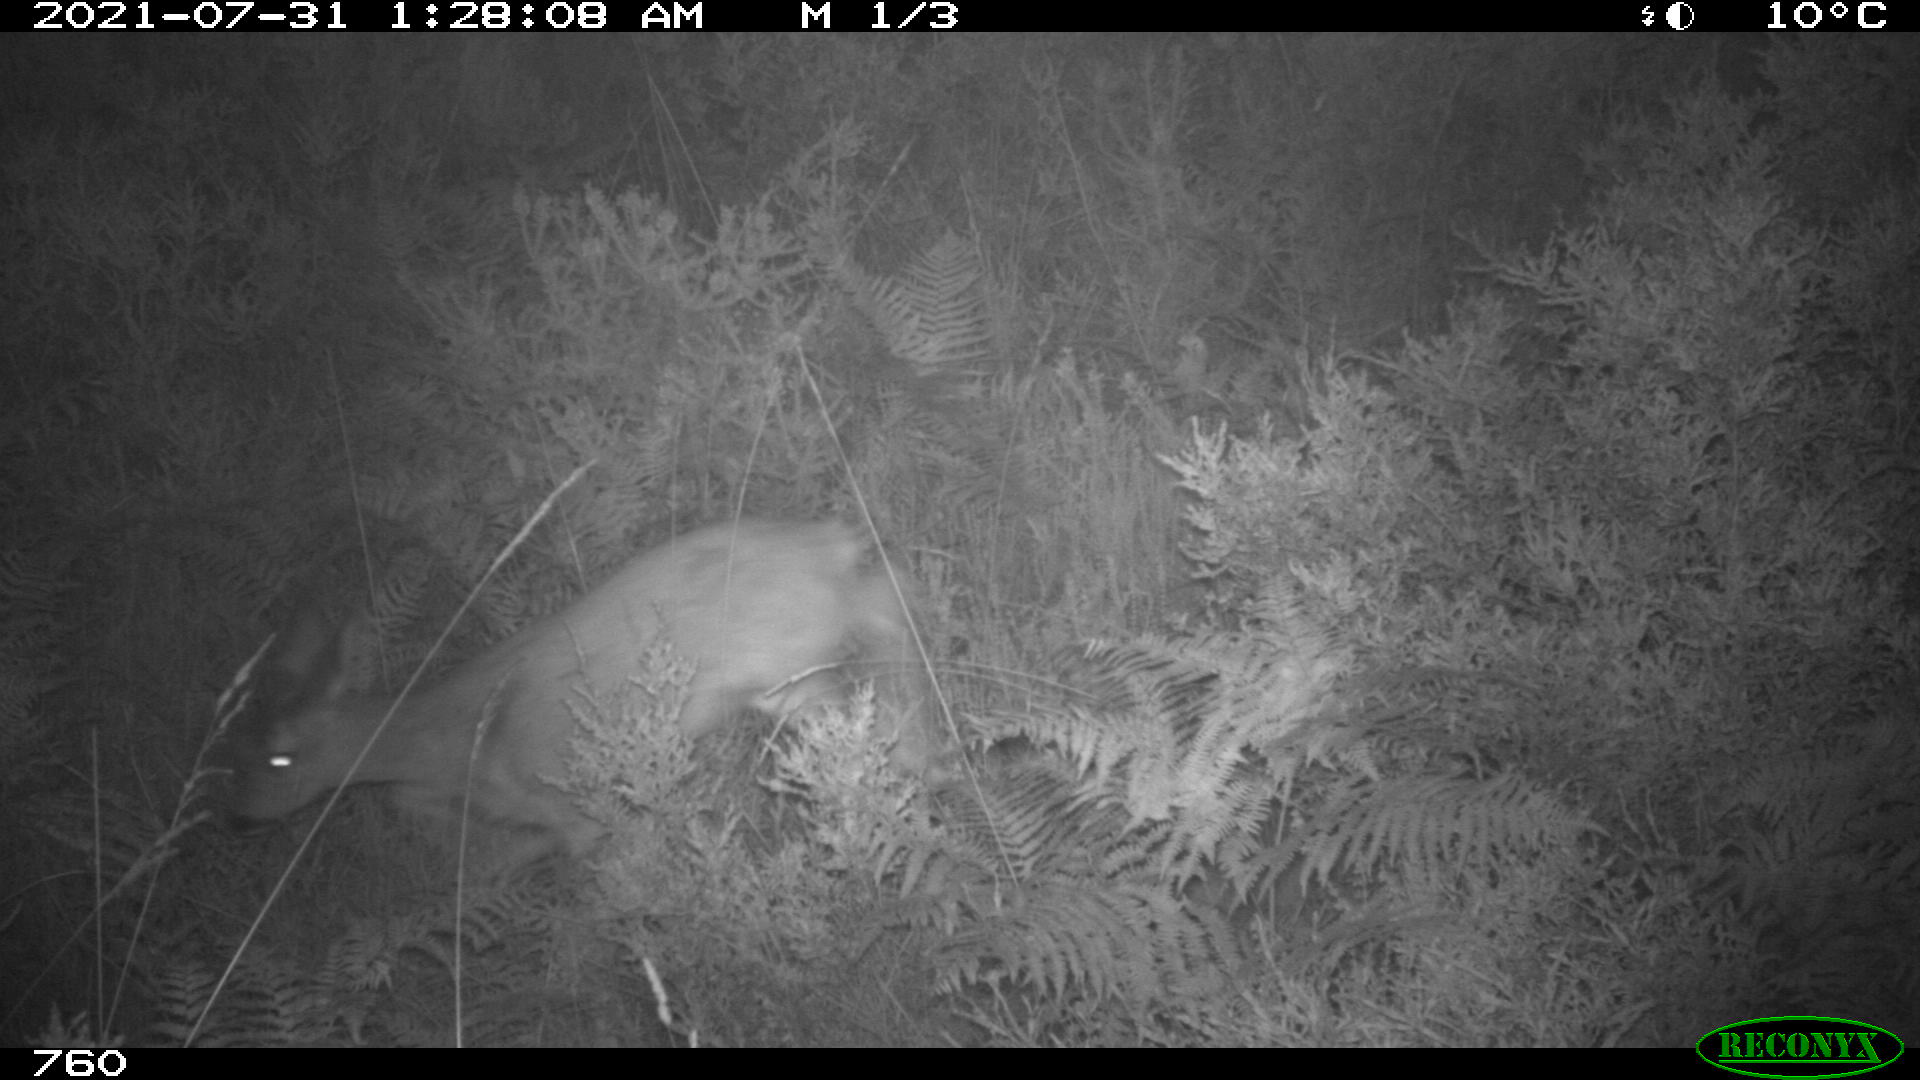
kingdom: Animalia
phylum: Chordata
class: Mammalia
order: Artiodactyla
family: Cervidae
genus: Capreolus
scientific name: Capreolus capreolus
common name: Western roe deer
